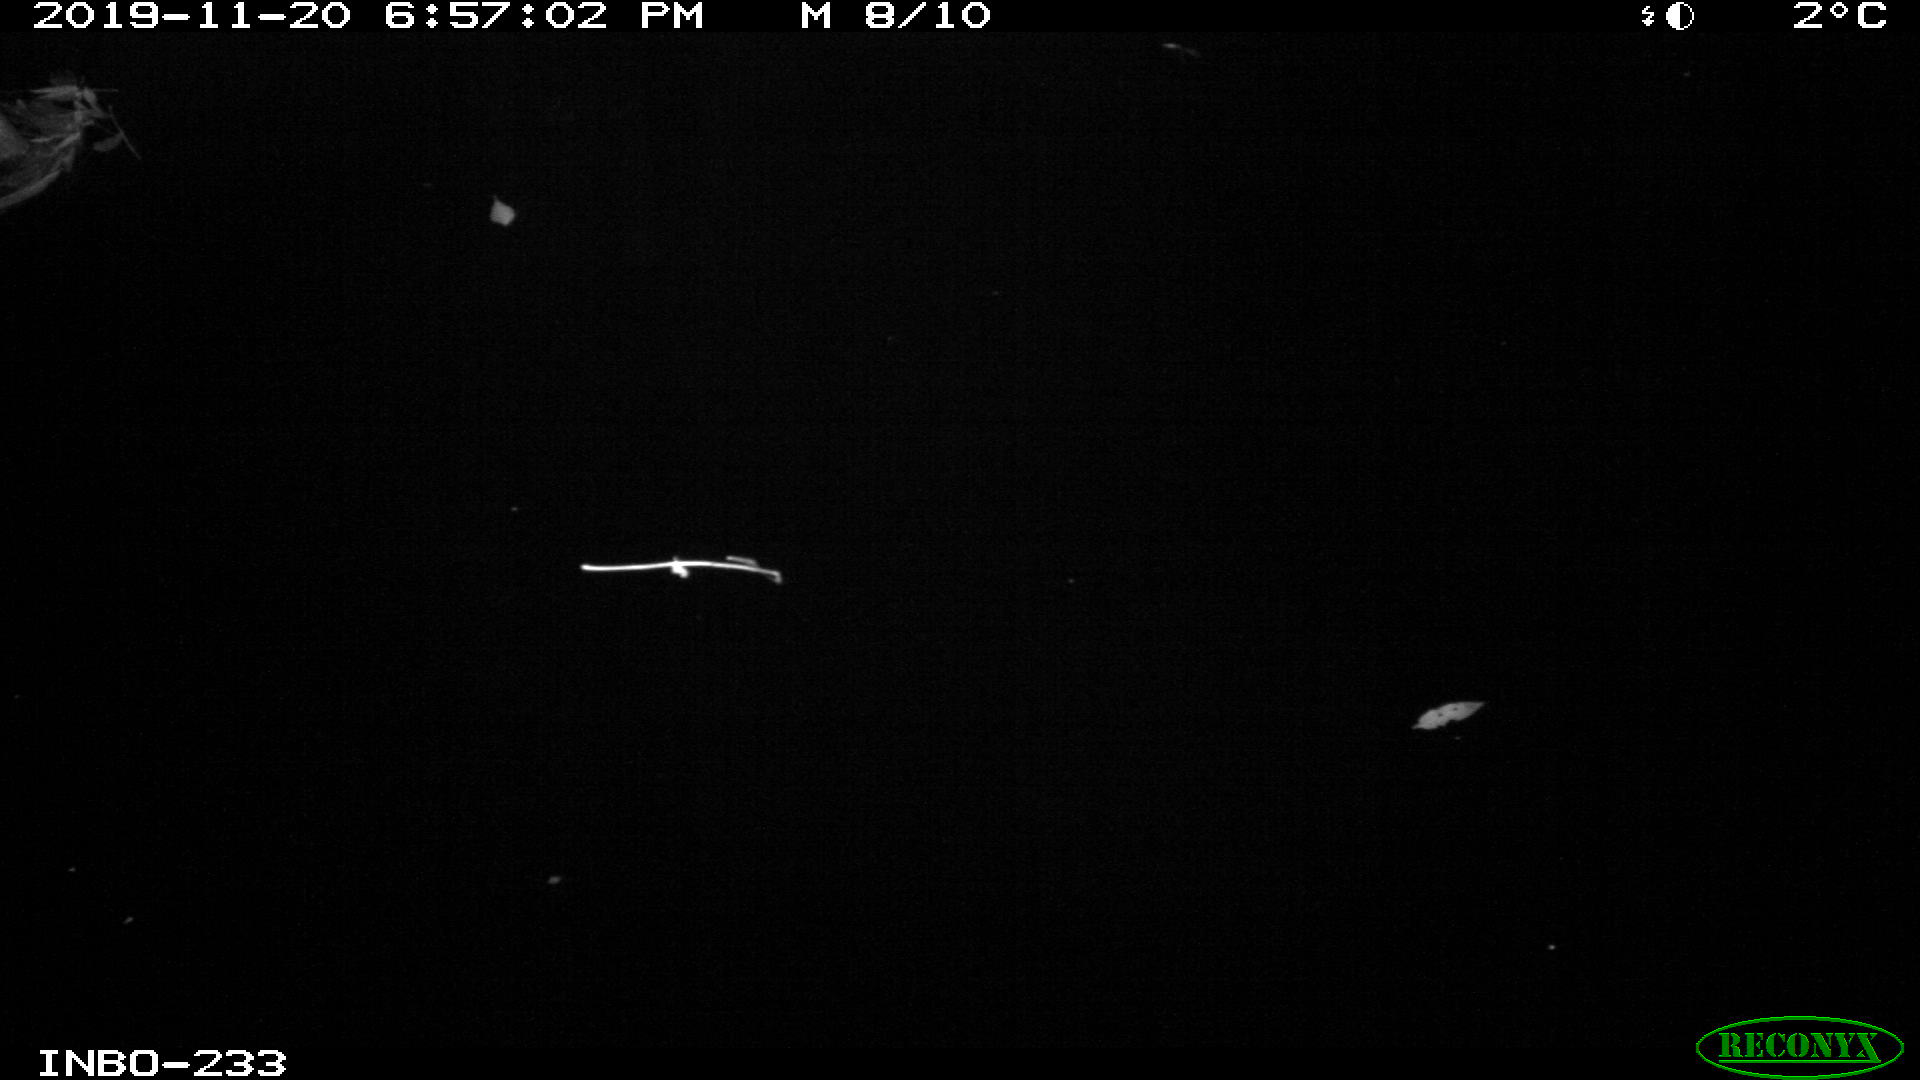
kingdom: Animalia
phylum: Chordata
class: Aves
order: Anseriformes
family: Anatidae
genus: Anas
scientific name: Anas platyrhynchos
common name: Mallard
